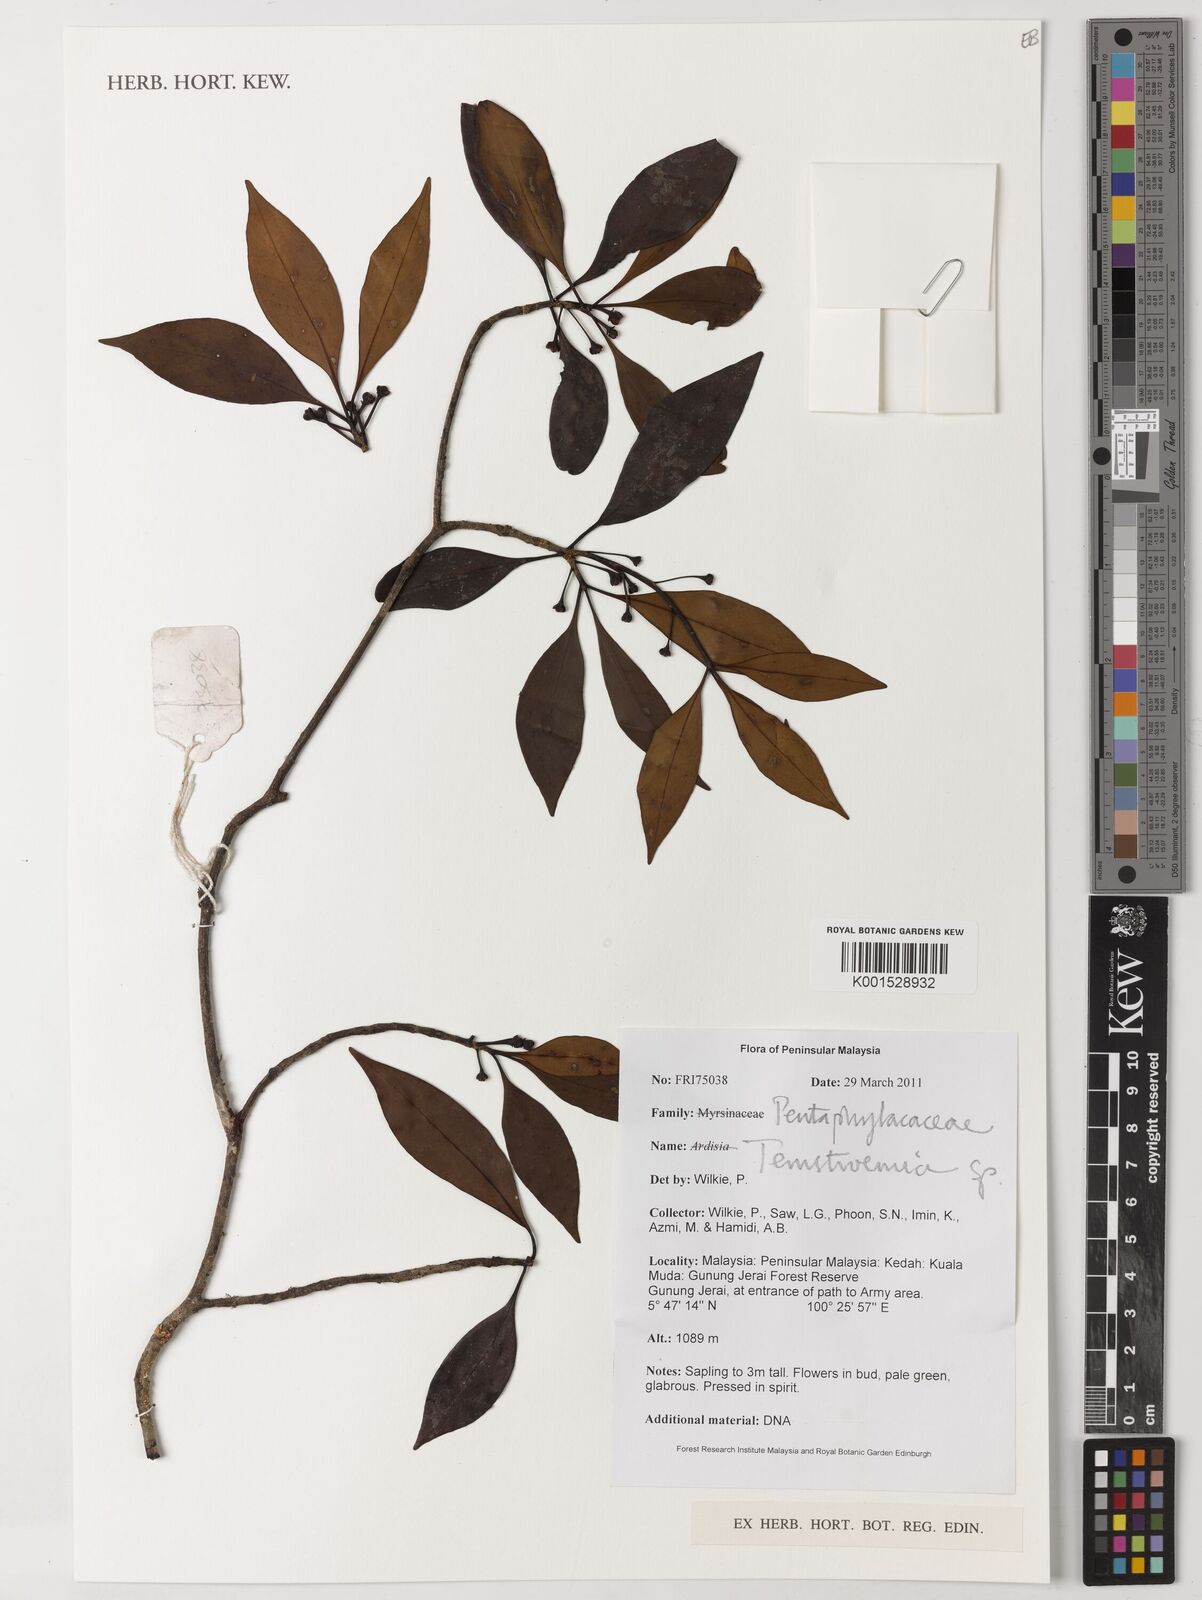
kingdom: Plantae
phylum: Tracheophyta
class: Magnoliopsida
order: Ericales
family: Pentaphylacaceae
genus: Ternstroemia
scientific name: Ternstroemia
